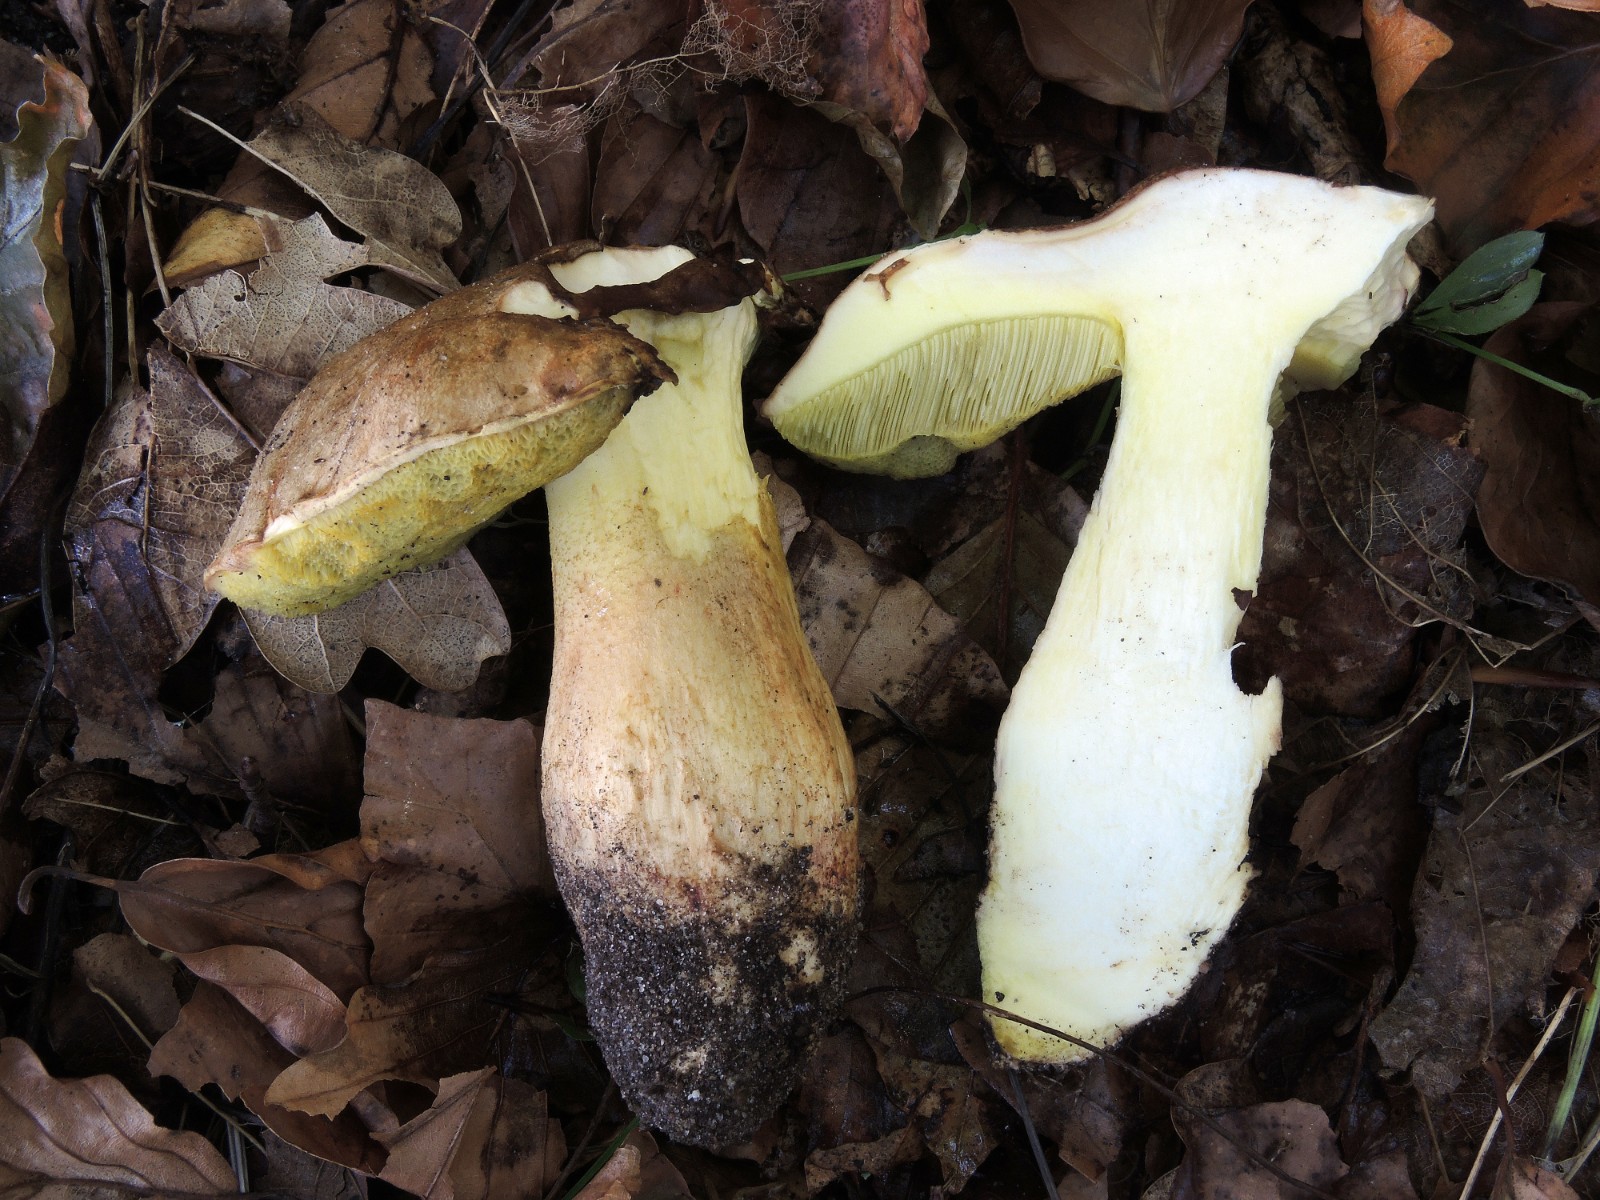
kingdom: Fungi
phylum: Basidiomycota
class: Agaricomycetes
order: Boletales
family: Boletaceae
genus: Hemileccinum
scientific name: Hemileccinum impolitum
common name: bleg rørhat
